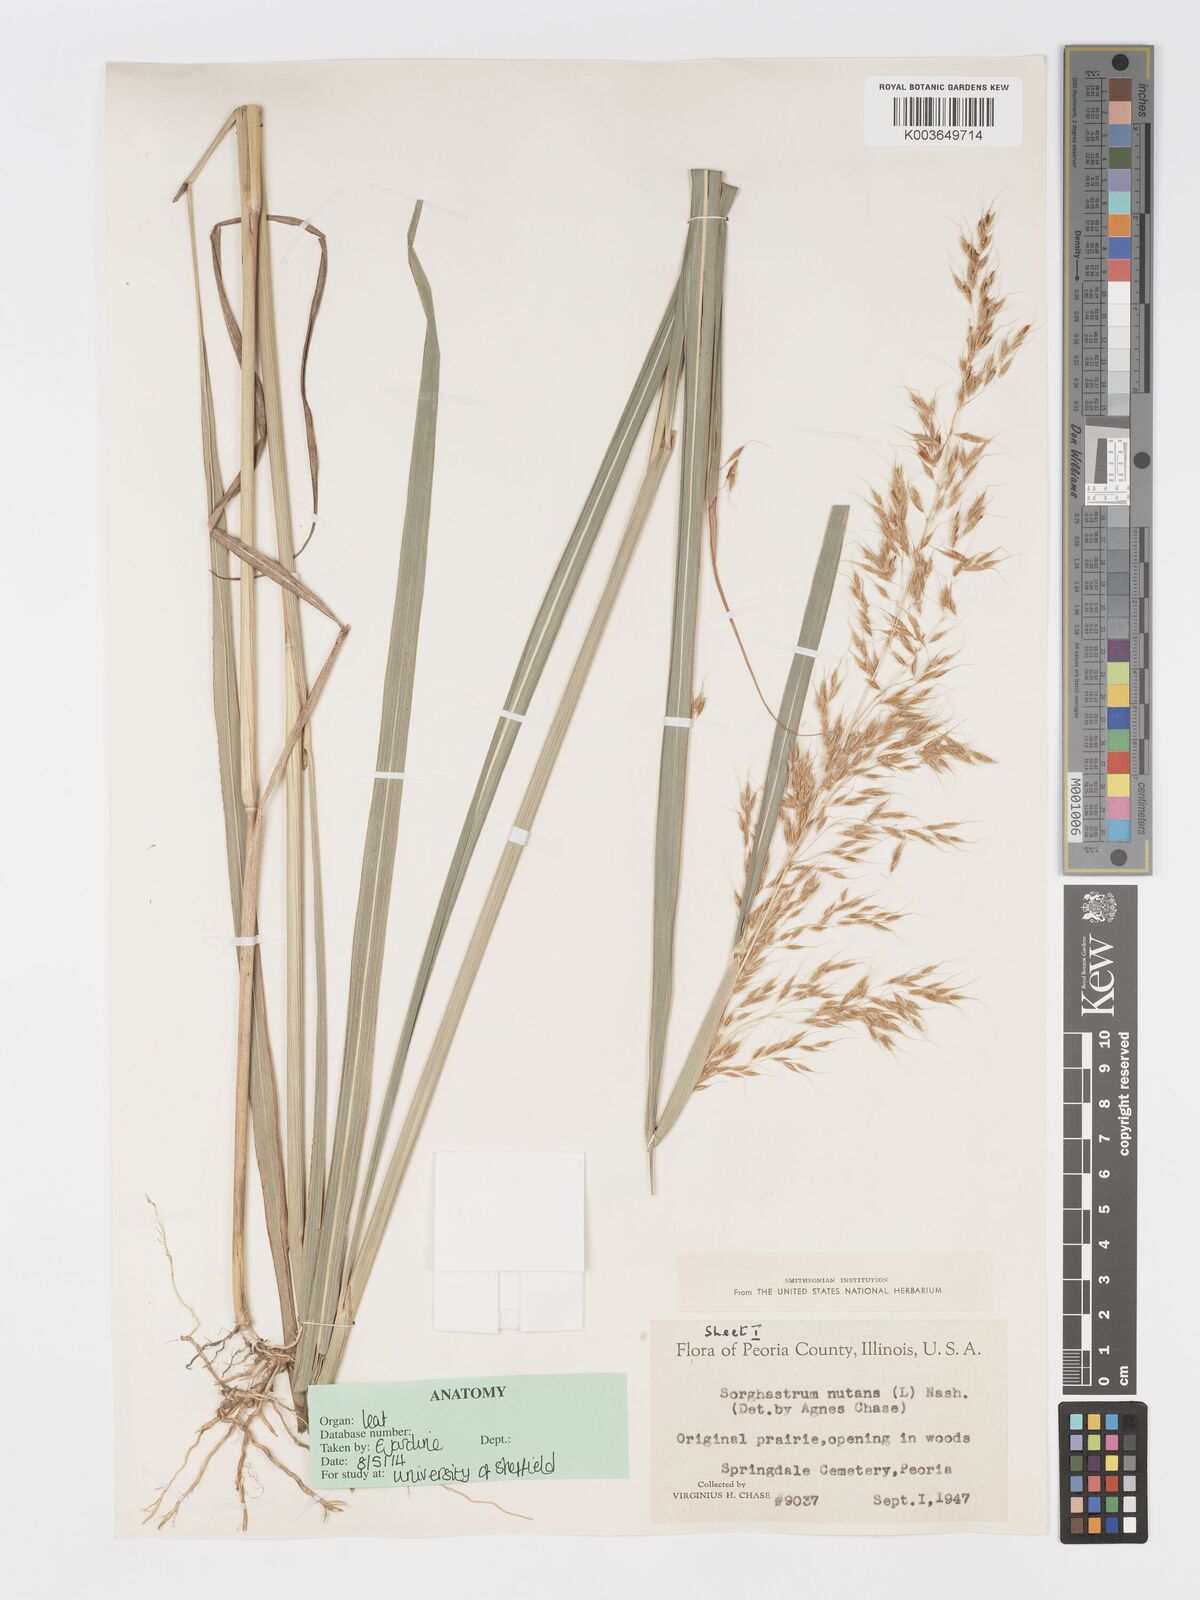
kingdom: Plantae
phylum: Tracheophyta
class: Liliopsida
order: Poales
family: Poaceae
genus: Sorghastrum
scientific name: Sorghastrum nutans
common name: Indian grass
